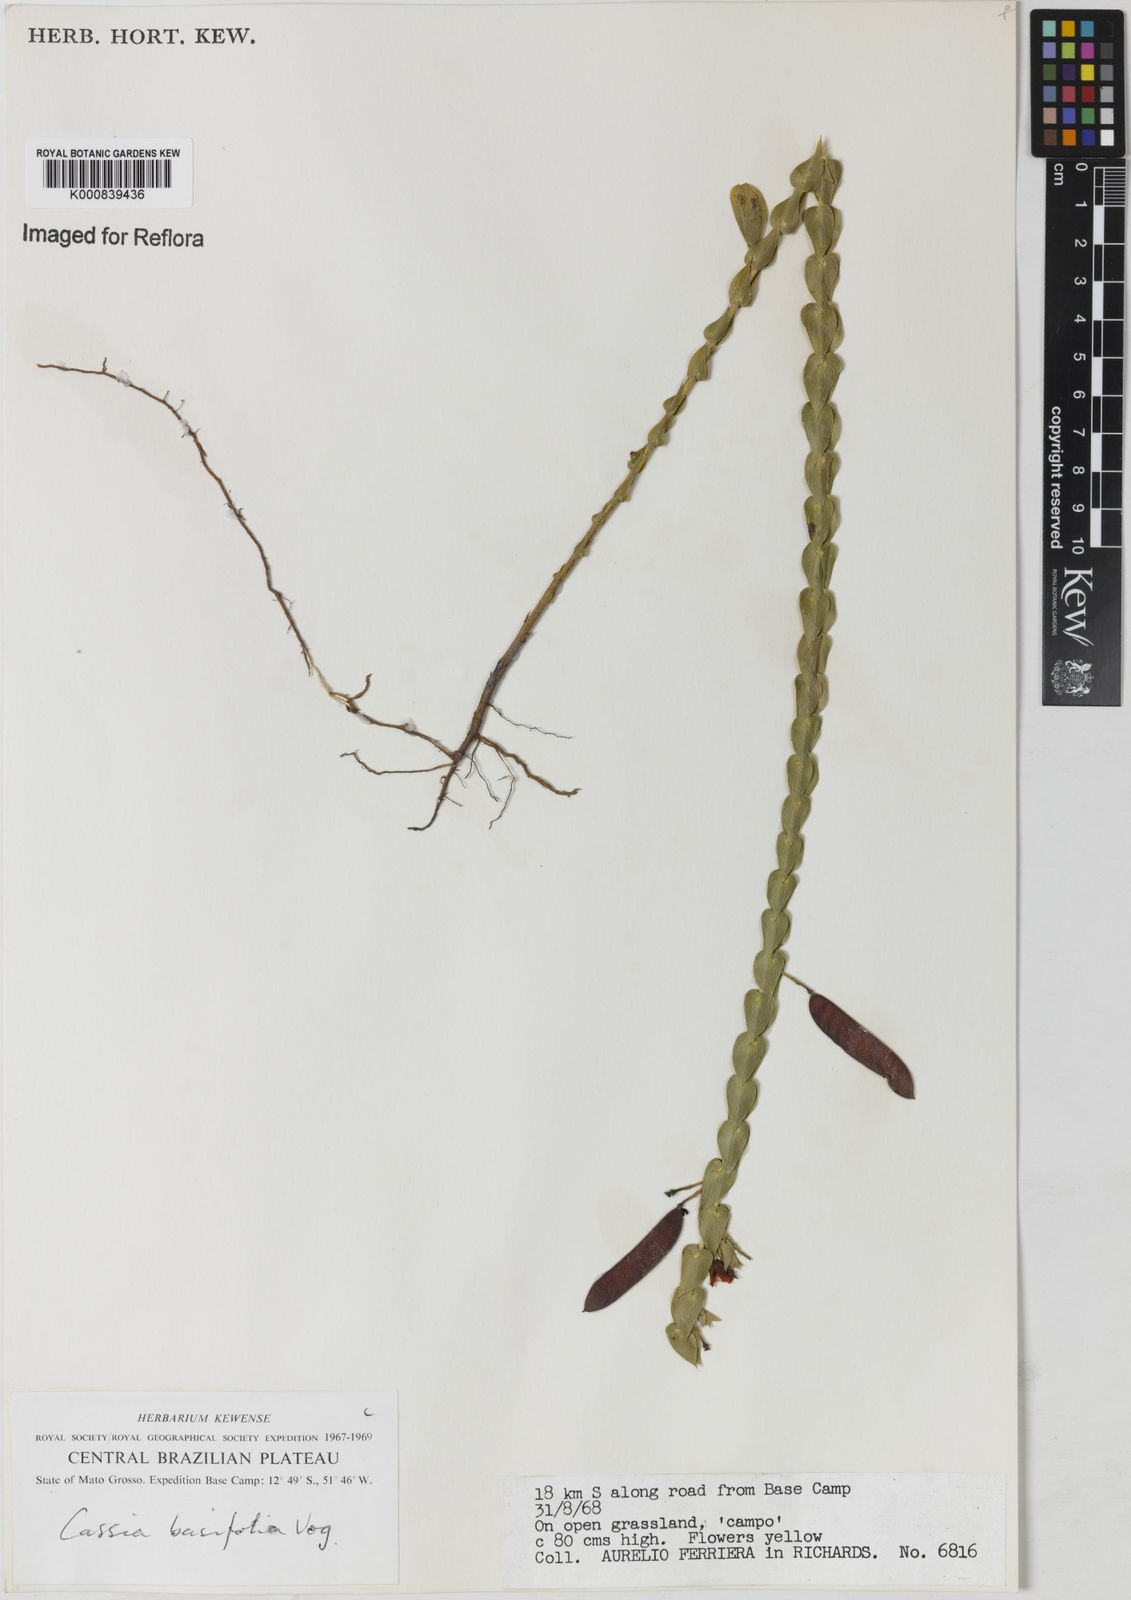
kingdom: Plantae
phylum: Tracheophyta
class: Magnoliopsida
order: Fabales
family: Fabaceae
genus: Chamaecrista
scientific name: Chamaecrista basifolia
